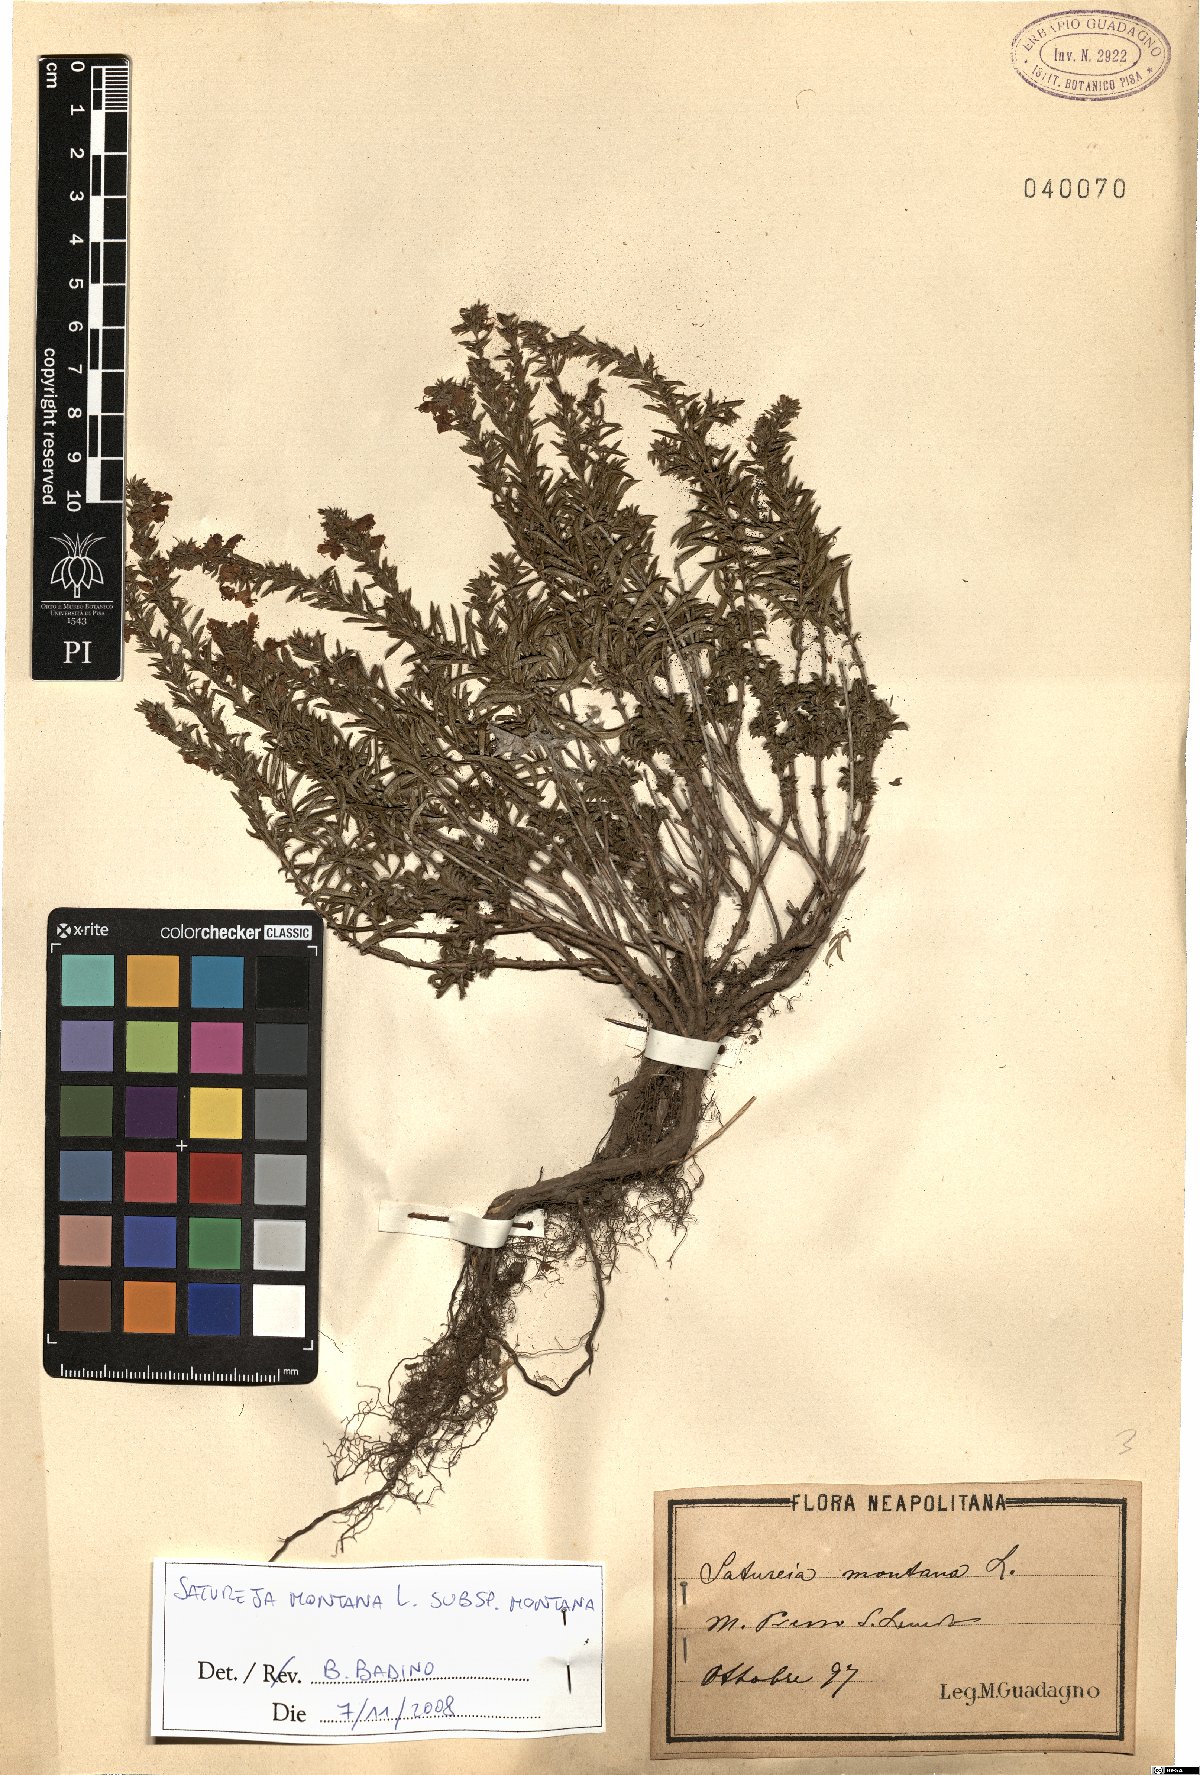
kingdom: Plantae
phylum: Tracheophyta
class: Magnoliopsida
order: Lamiales
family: Lamiaceae
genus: Satureja
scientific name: Satureja montana
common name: Winter savory
